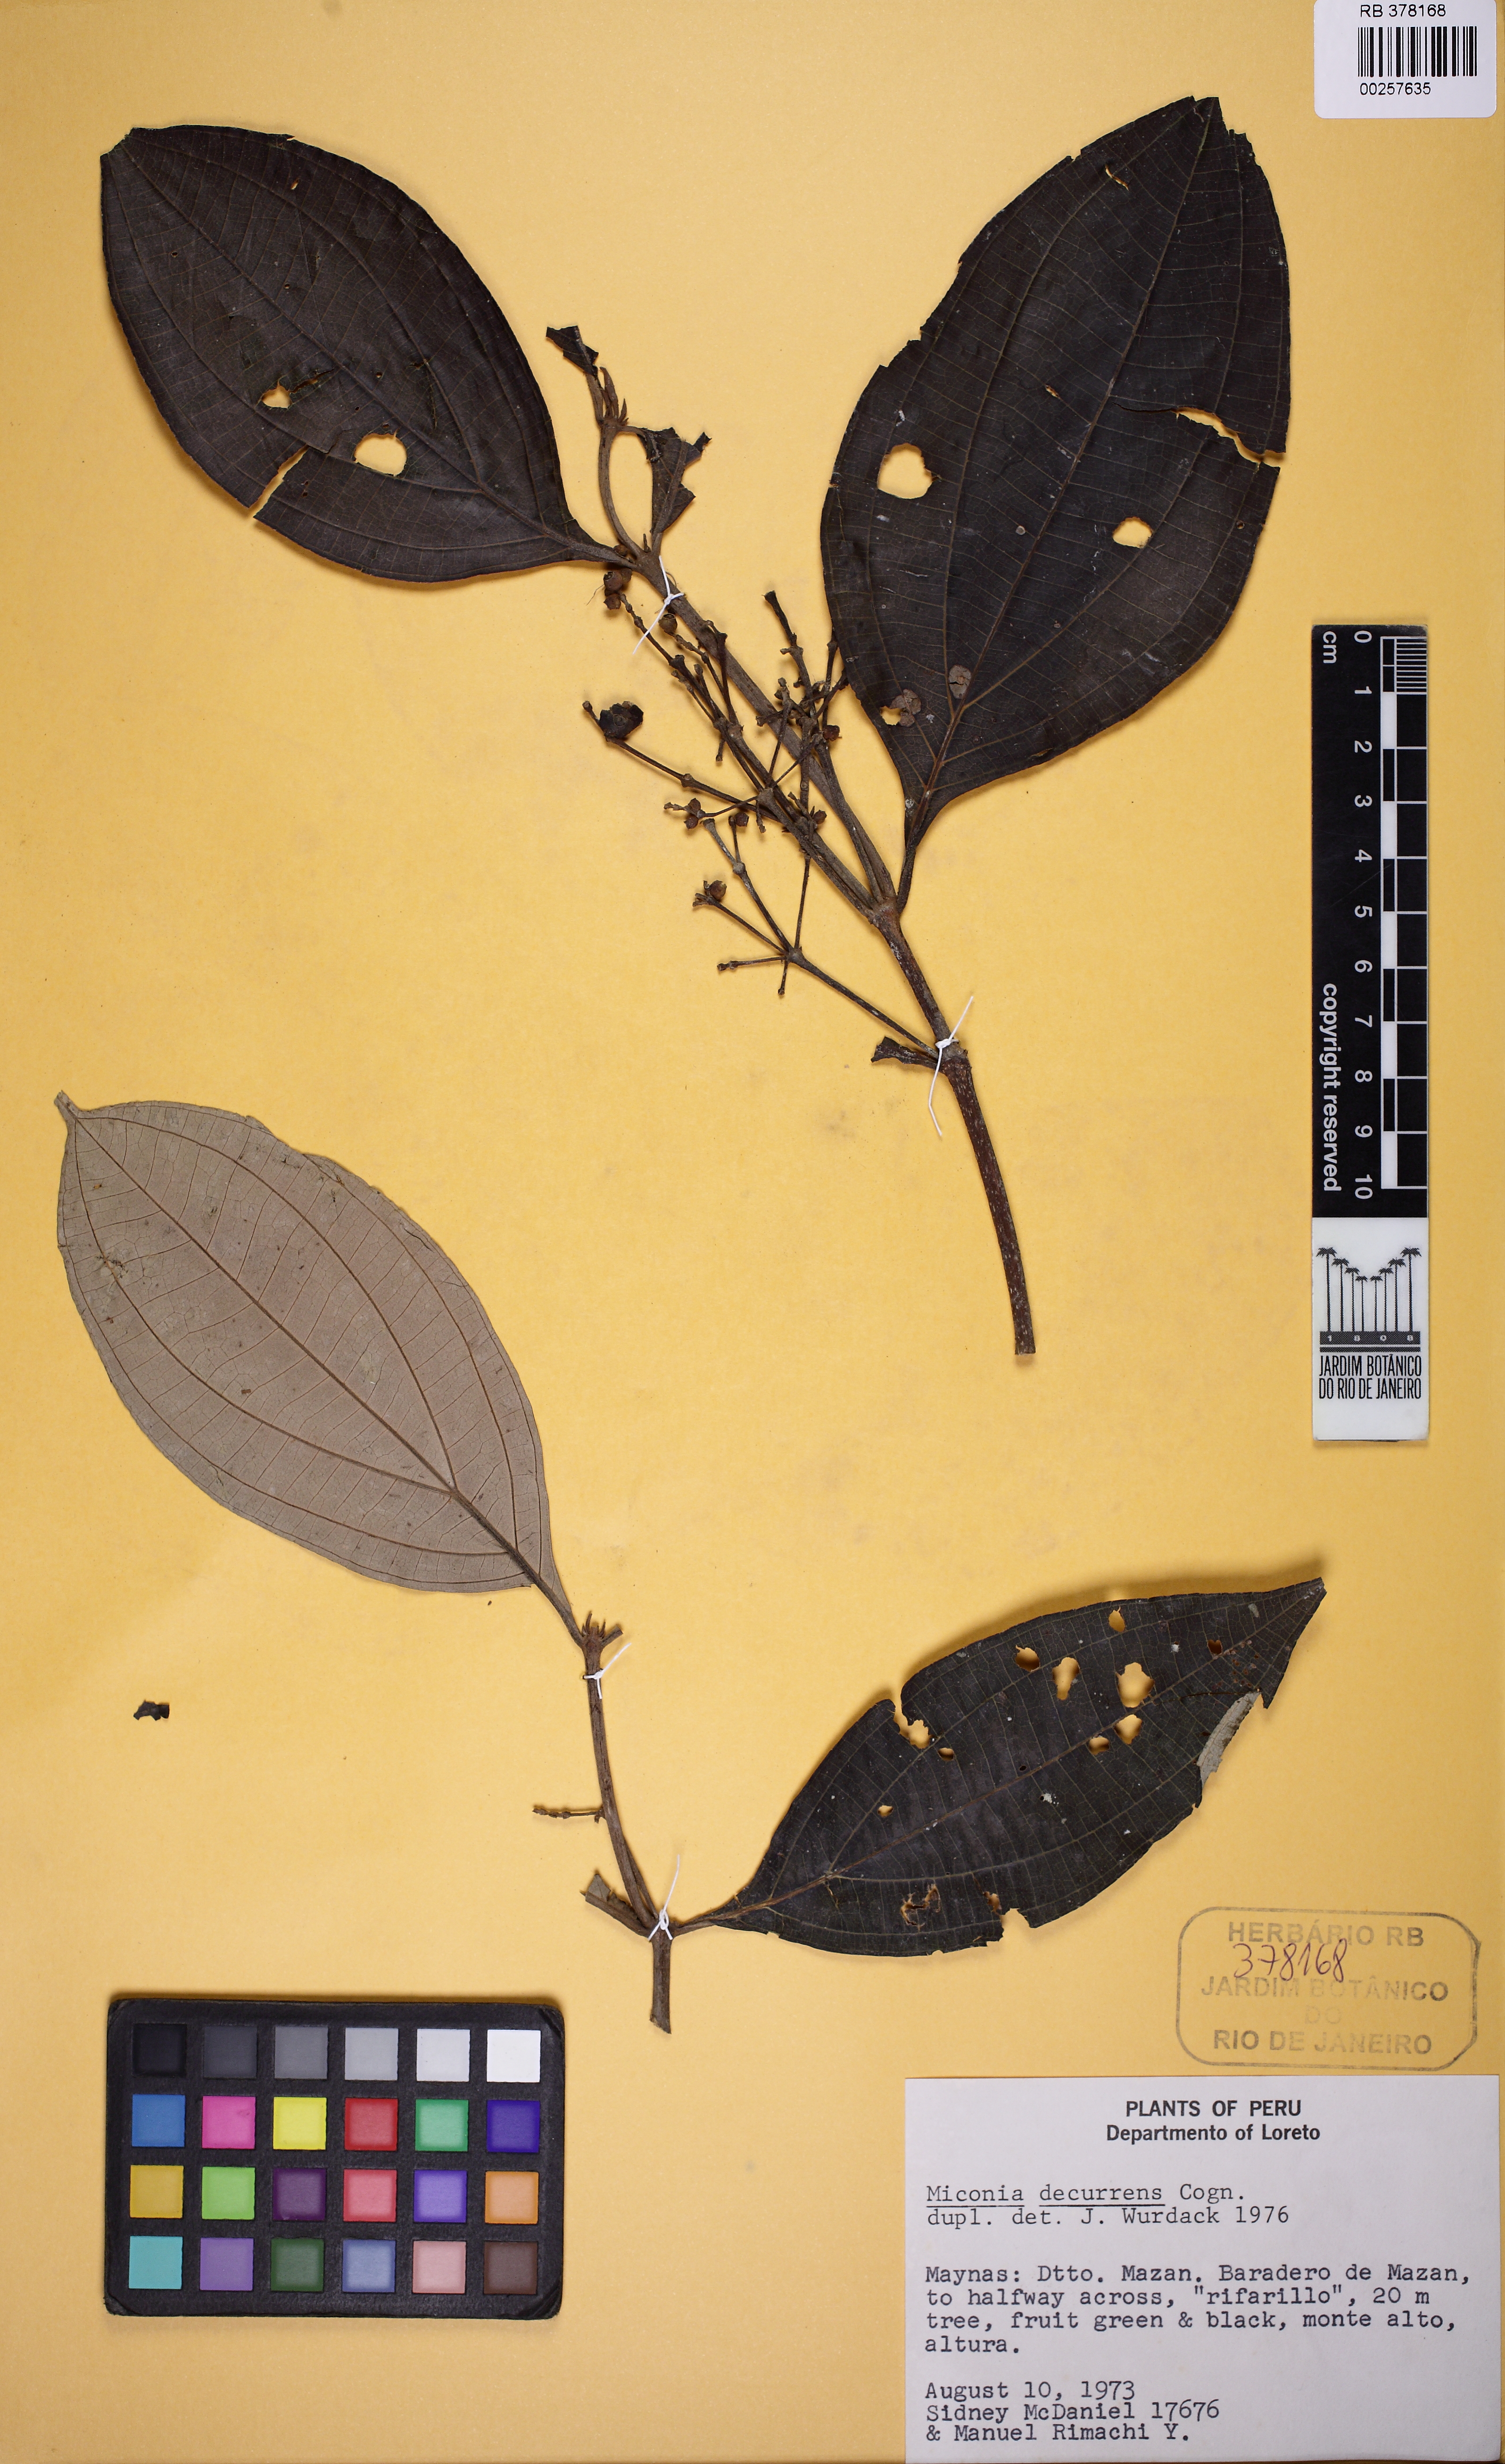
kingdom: Plantae
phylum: Tracheophyta
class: Magnoliopsida
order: Myrtales
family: Melastomataceae
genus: Miconia
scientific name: Miconia decurrens
